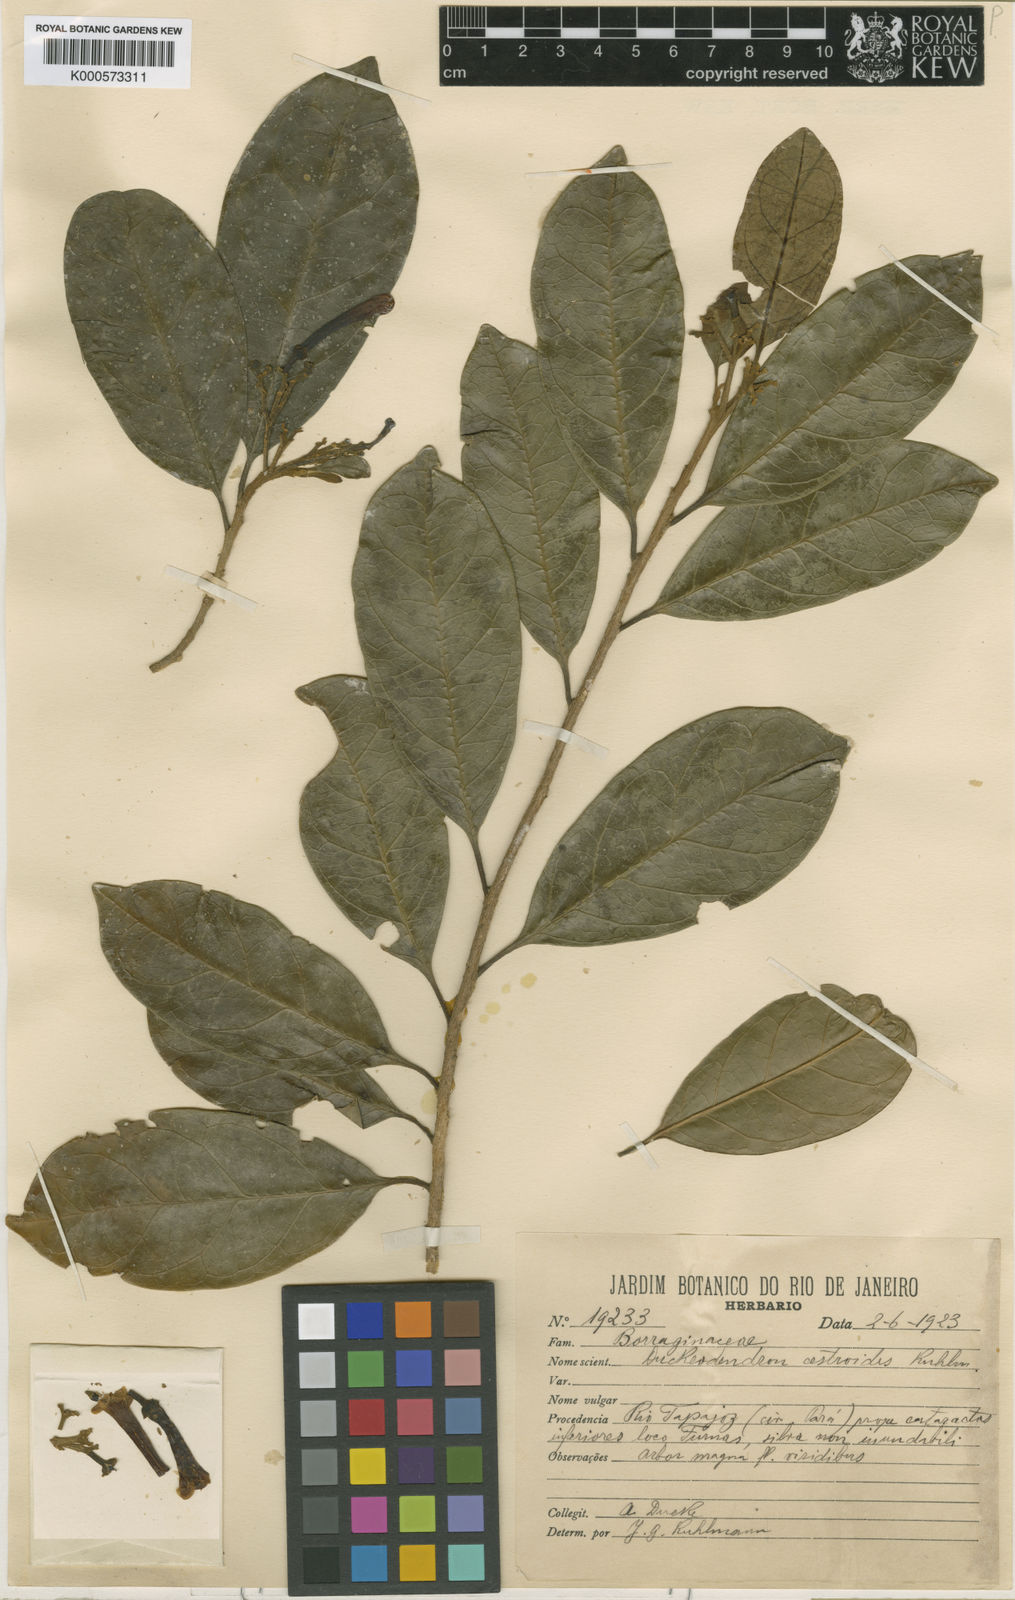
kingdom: Plantae
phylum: Tracheophyta
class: Magnoliopsida
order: Solanales
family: Solanaceae
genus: Duckeodendron
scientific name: Duckeodendron cestroides
